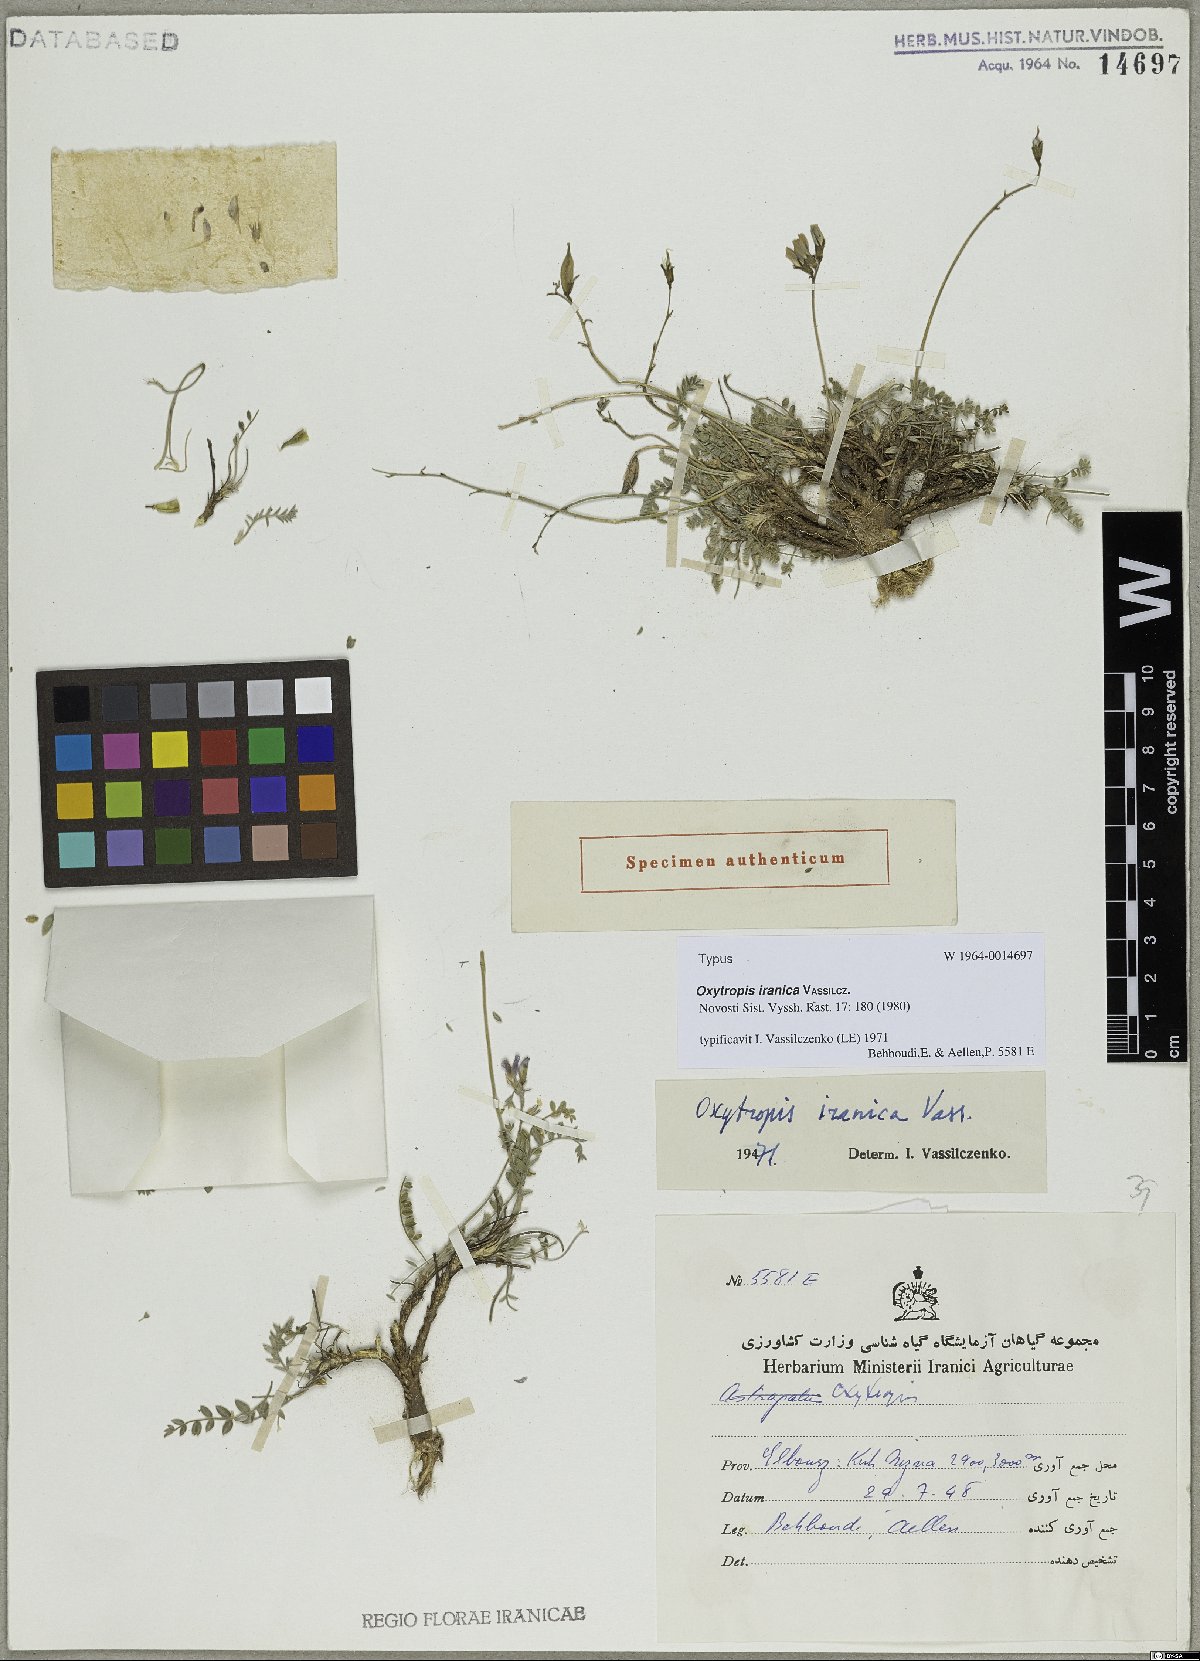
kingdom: Plantae
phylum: Tracheophyta
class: Magnoliopsida
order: Fabales
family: Fabaceae
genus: Oxytropis
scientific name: Oxytropis iranica
